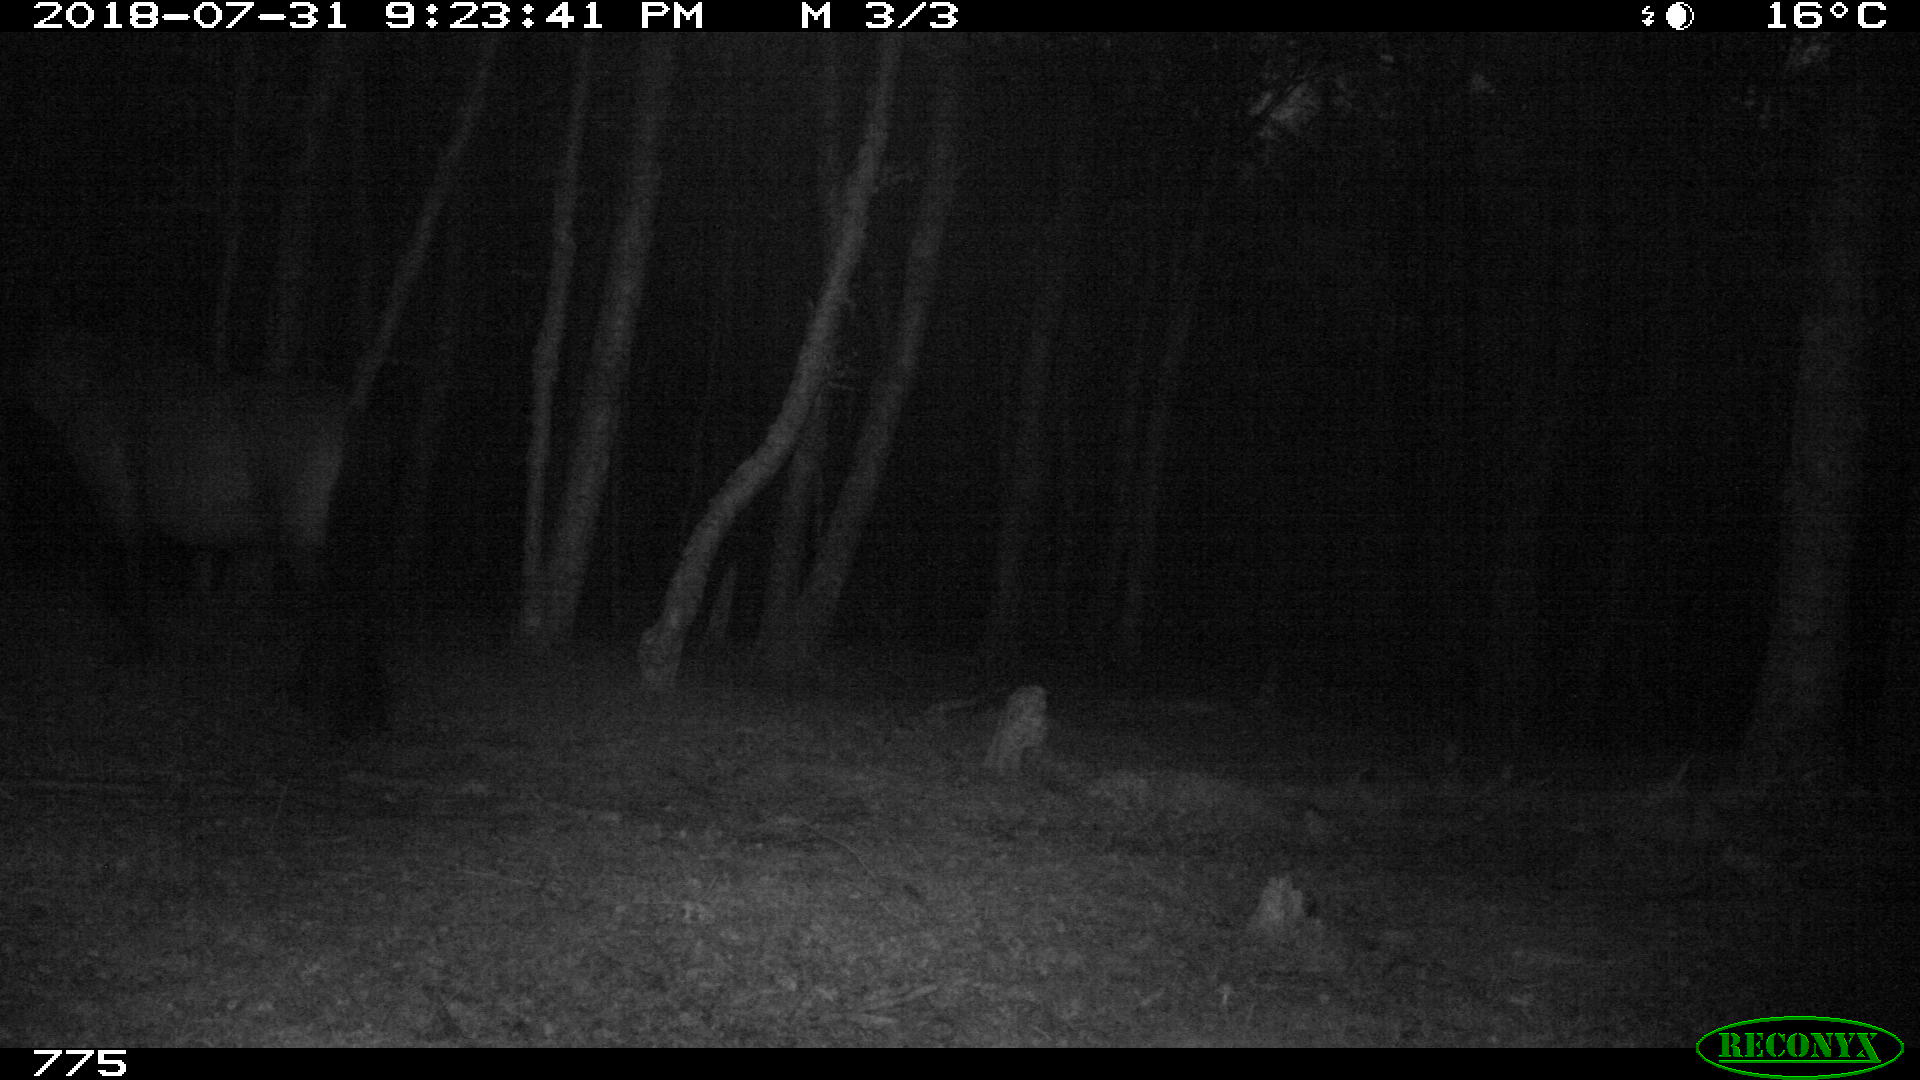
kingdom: Animalia
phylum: Chordata
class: Mammalia
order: Perissodactyla
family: Equidae
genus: Equus
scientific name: Equus caballus
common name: Horse
